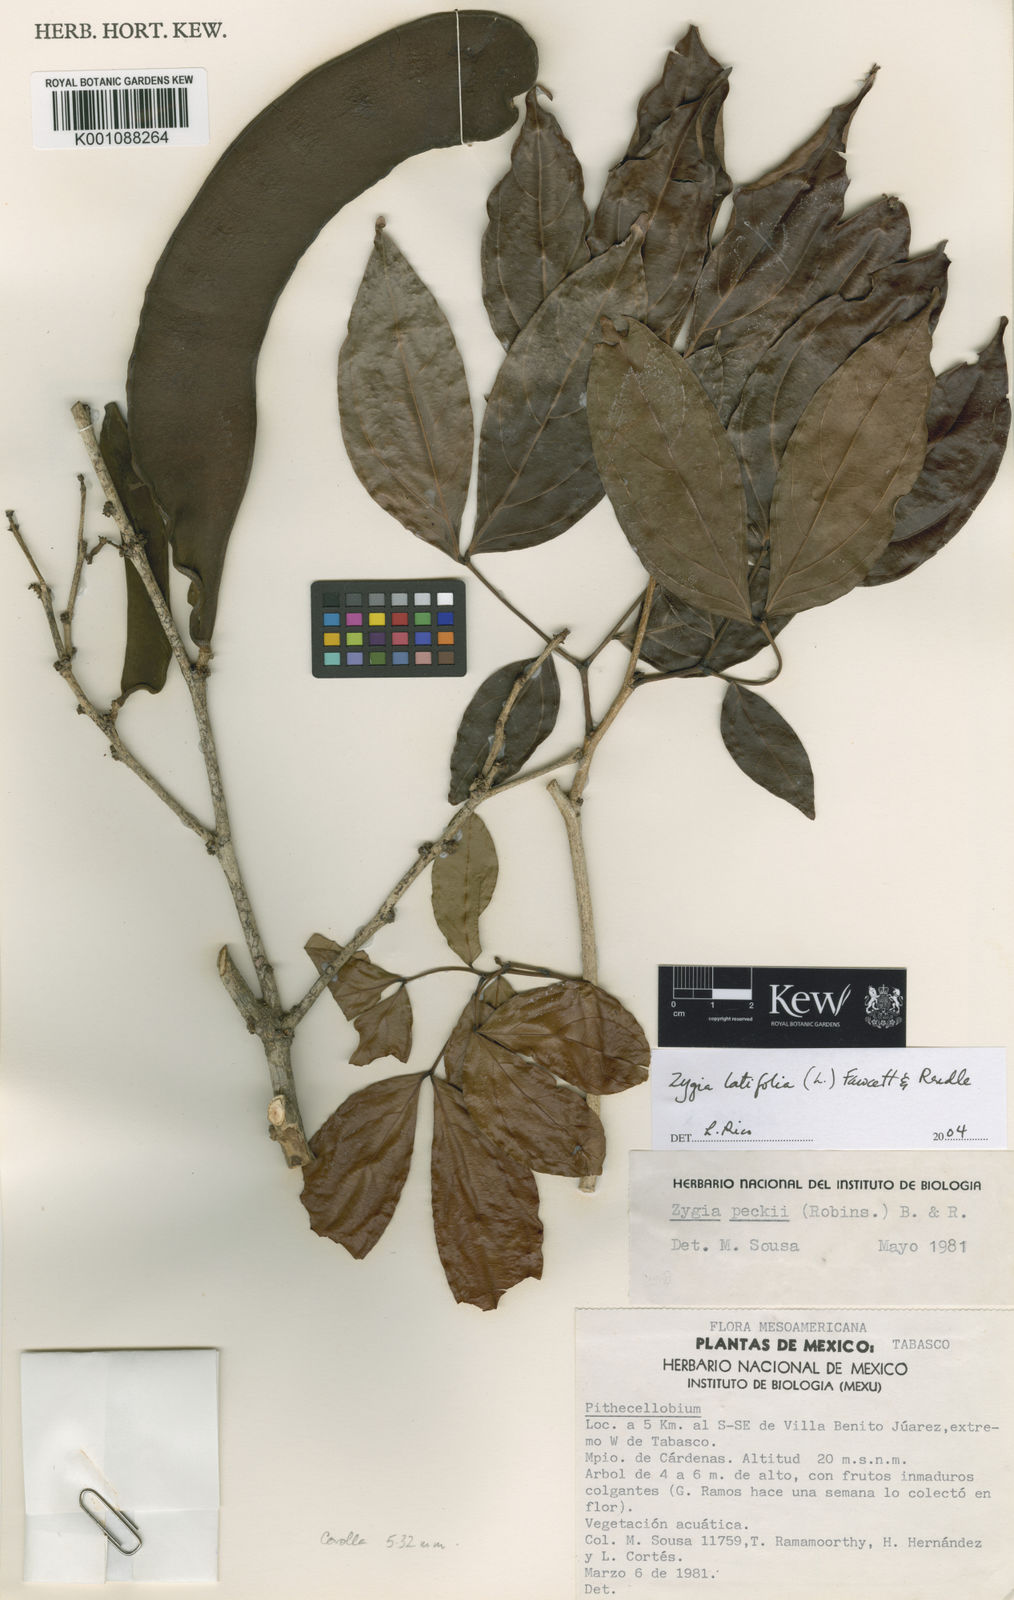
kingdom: Plantae
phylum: Tracheophyta
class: Magnoliopsida
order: Fabales
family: Fabaceae
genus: Zygia
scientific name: Zygia latifolia
